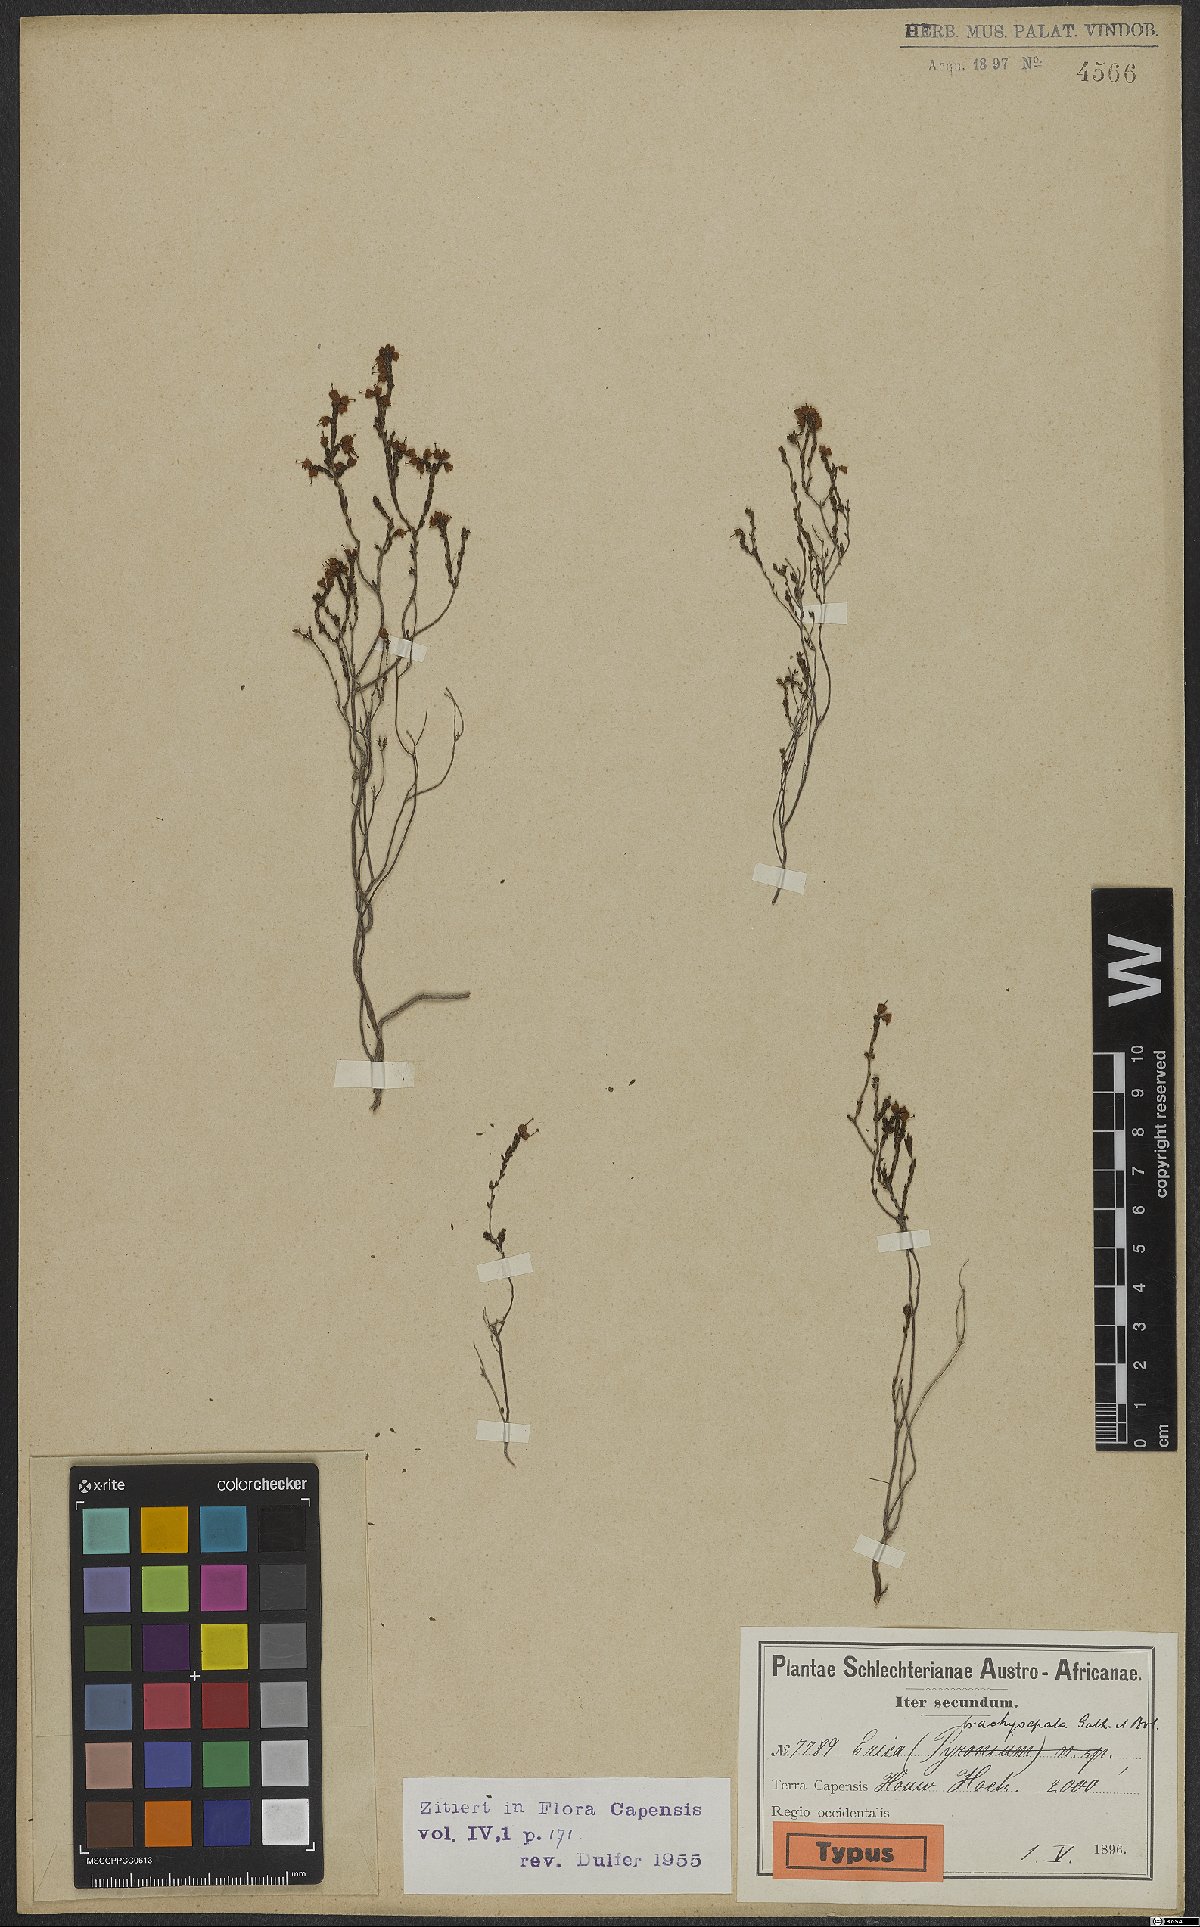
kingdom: Plantae
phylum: Tracheophyta
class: Magnoliopsida
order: Ericales
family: Ericaceae
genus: Erica
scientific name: Erica brachysepala
